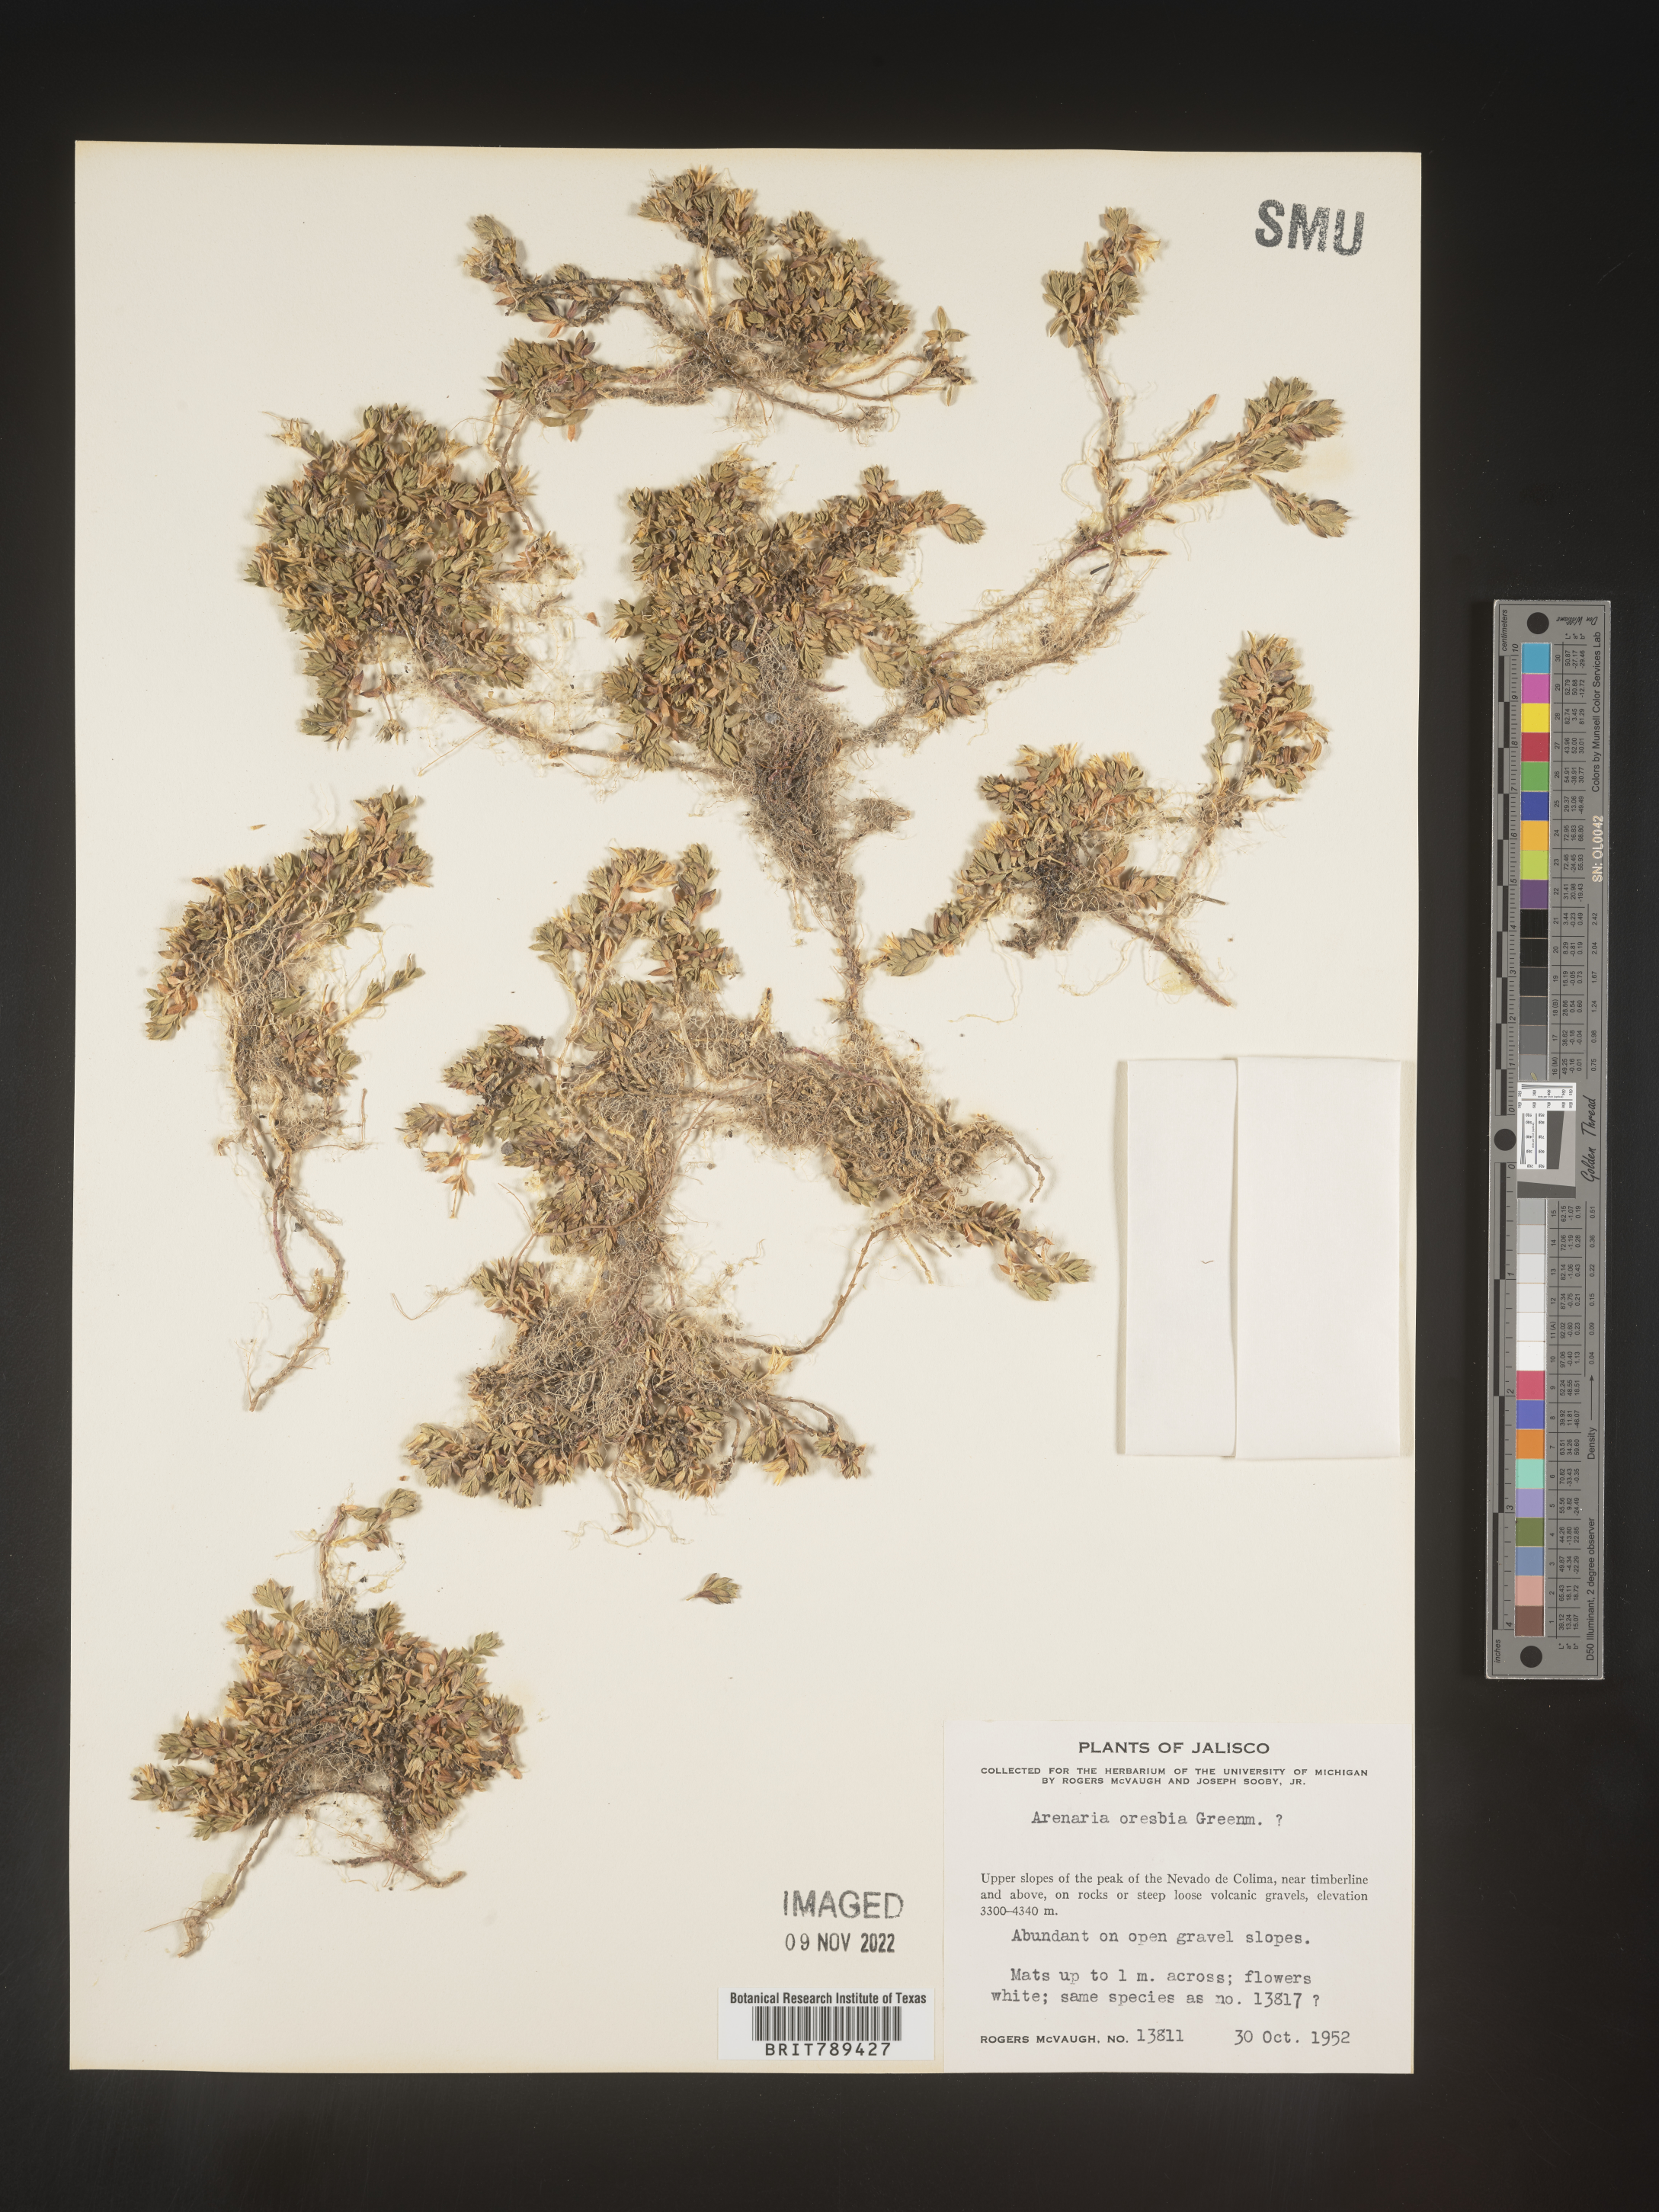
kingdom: Plantae
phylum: Tracheophyta
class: Magnoliopsida
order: Caryophyllales
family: Caryophyllaceae
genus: Arenaria
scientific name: Arenaria
